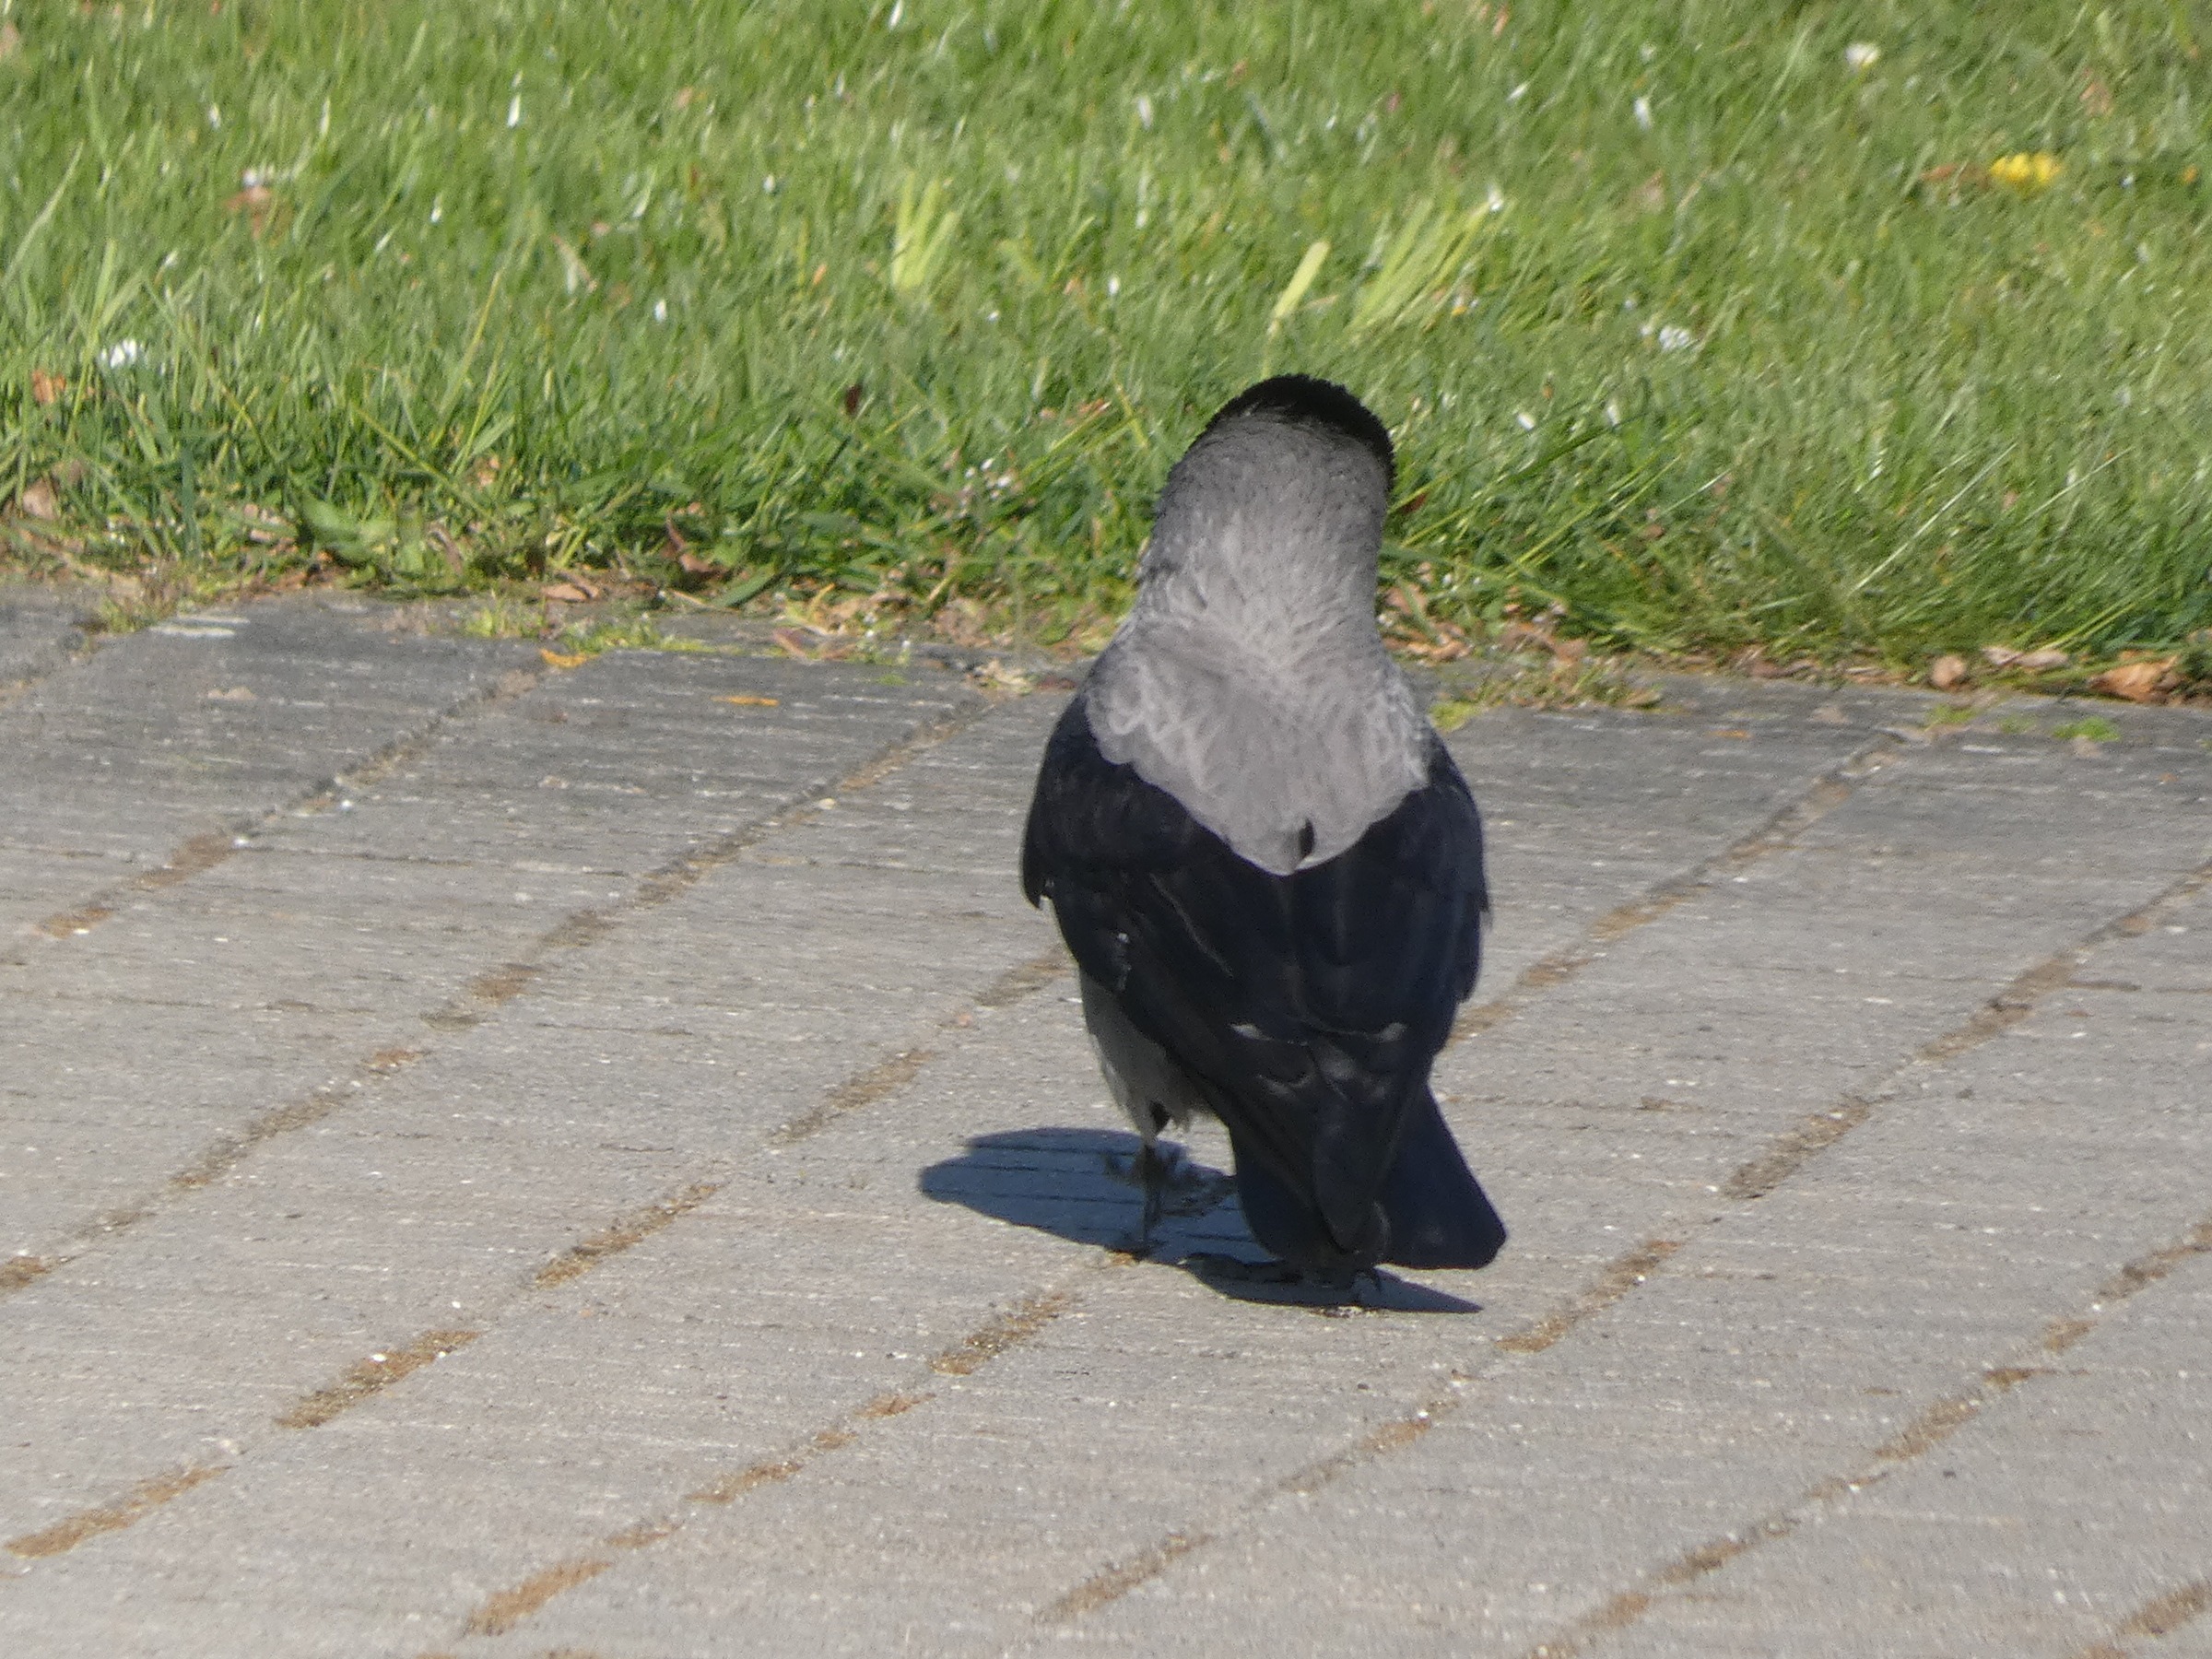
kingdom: Animalia
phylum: Chordata
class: Aves
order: Passeriformes
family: Corvidae
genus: Corvus
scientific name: Corvus cornix
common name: Gråkrage
